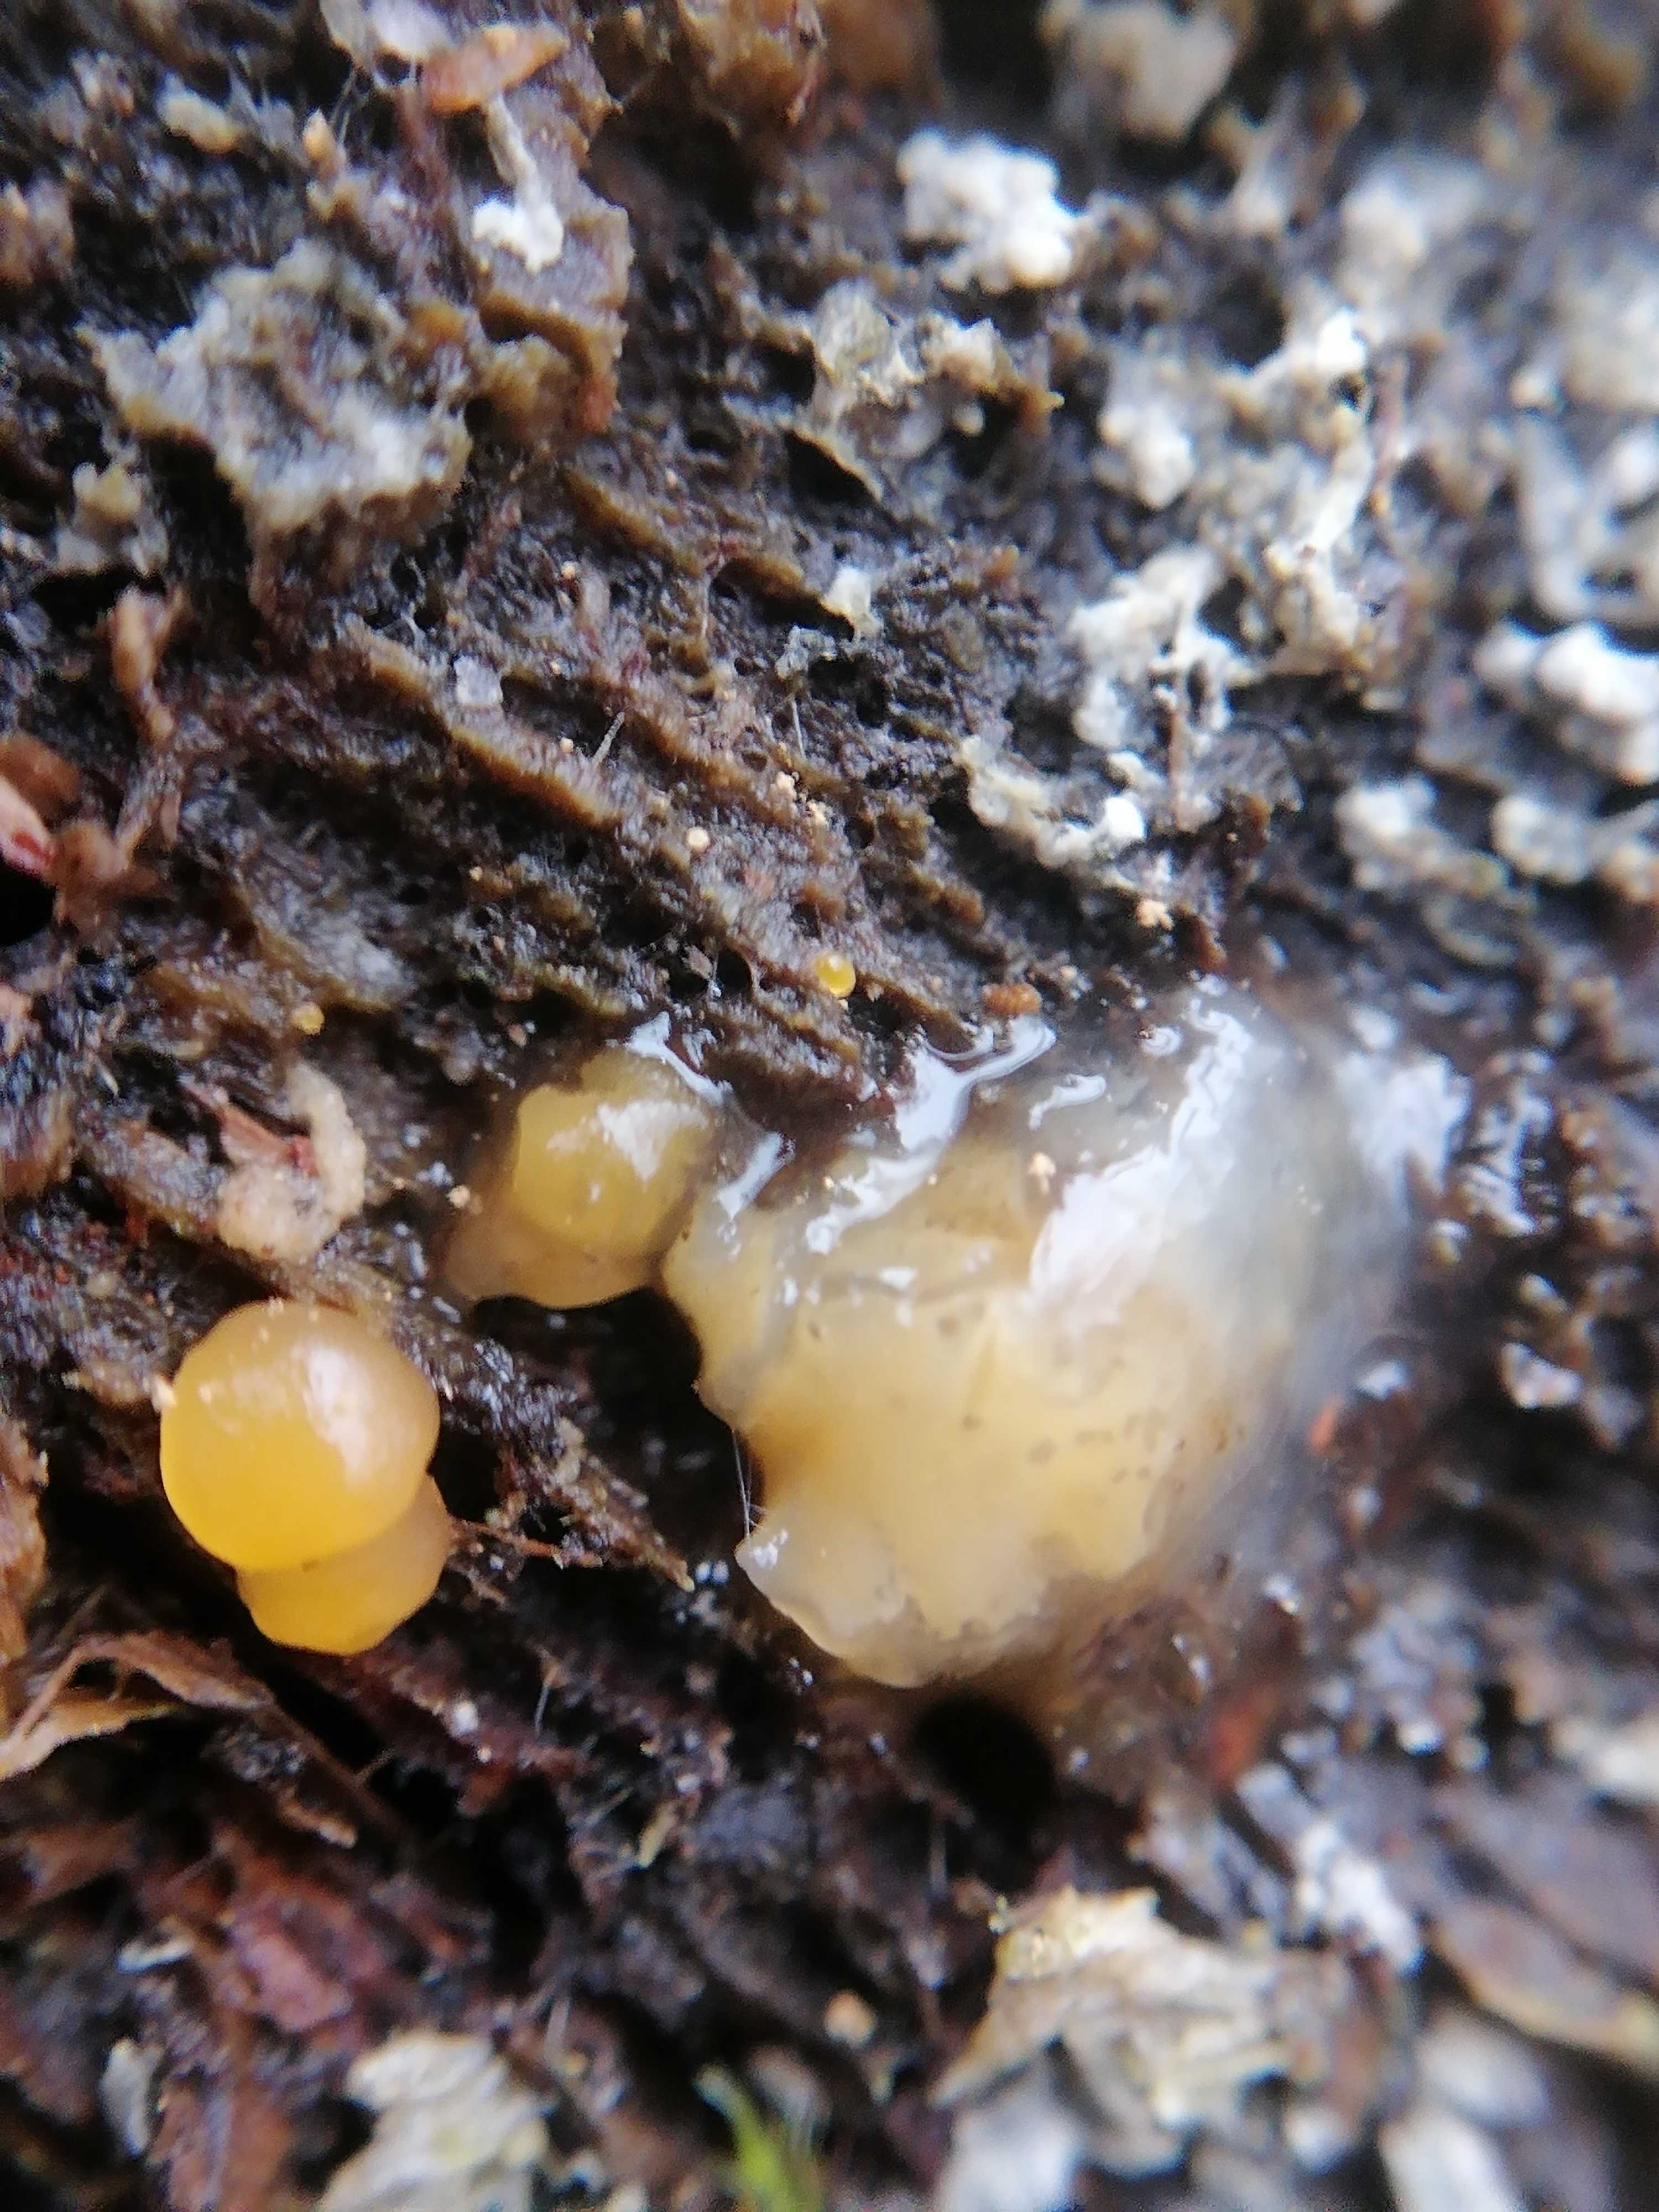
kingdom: Fungi
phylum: Basidiomycota
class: Dacrymycetes
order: Dacrymycetales
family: Dacrymycetaceae
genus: Dacrymyces
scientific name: Dacrymyces stillatus
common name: almindelig tåresvamp
